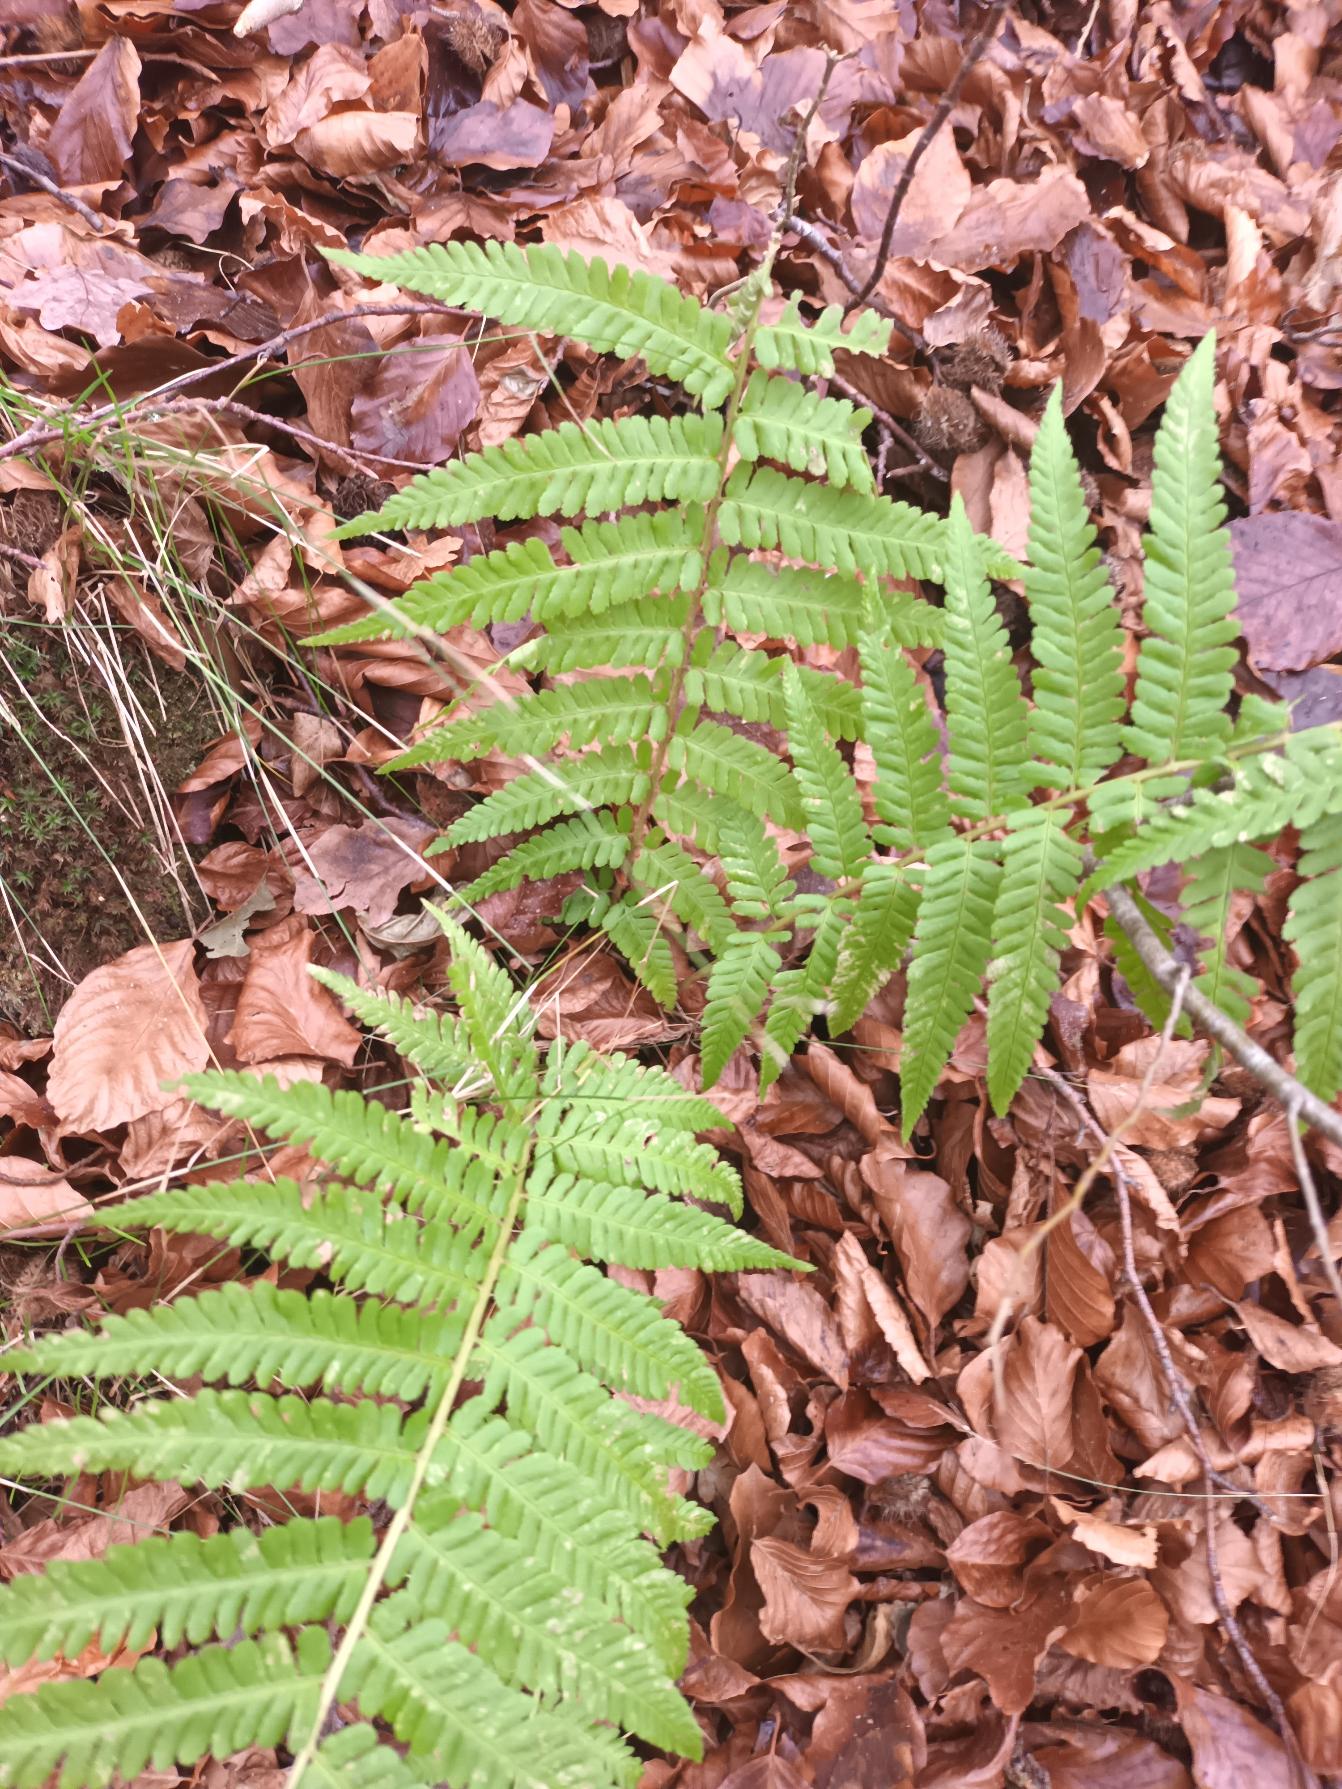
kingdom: Plantae
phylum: Tracheophyta
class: Polypodiopsida
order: Polypodiales
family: Dryopteridaceae
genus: Dryopteris
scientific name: Dryopteris filix-mas
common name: Almindelig mangeløv
